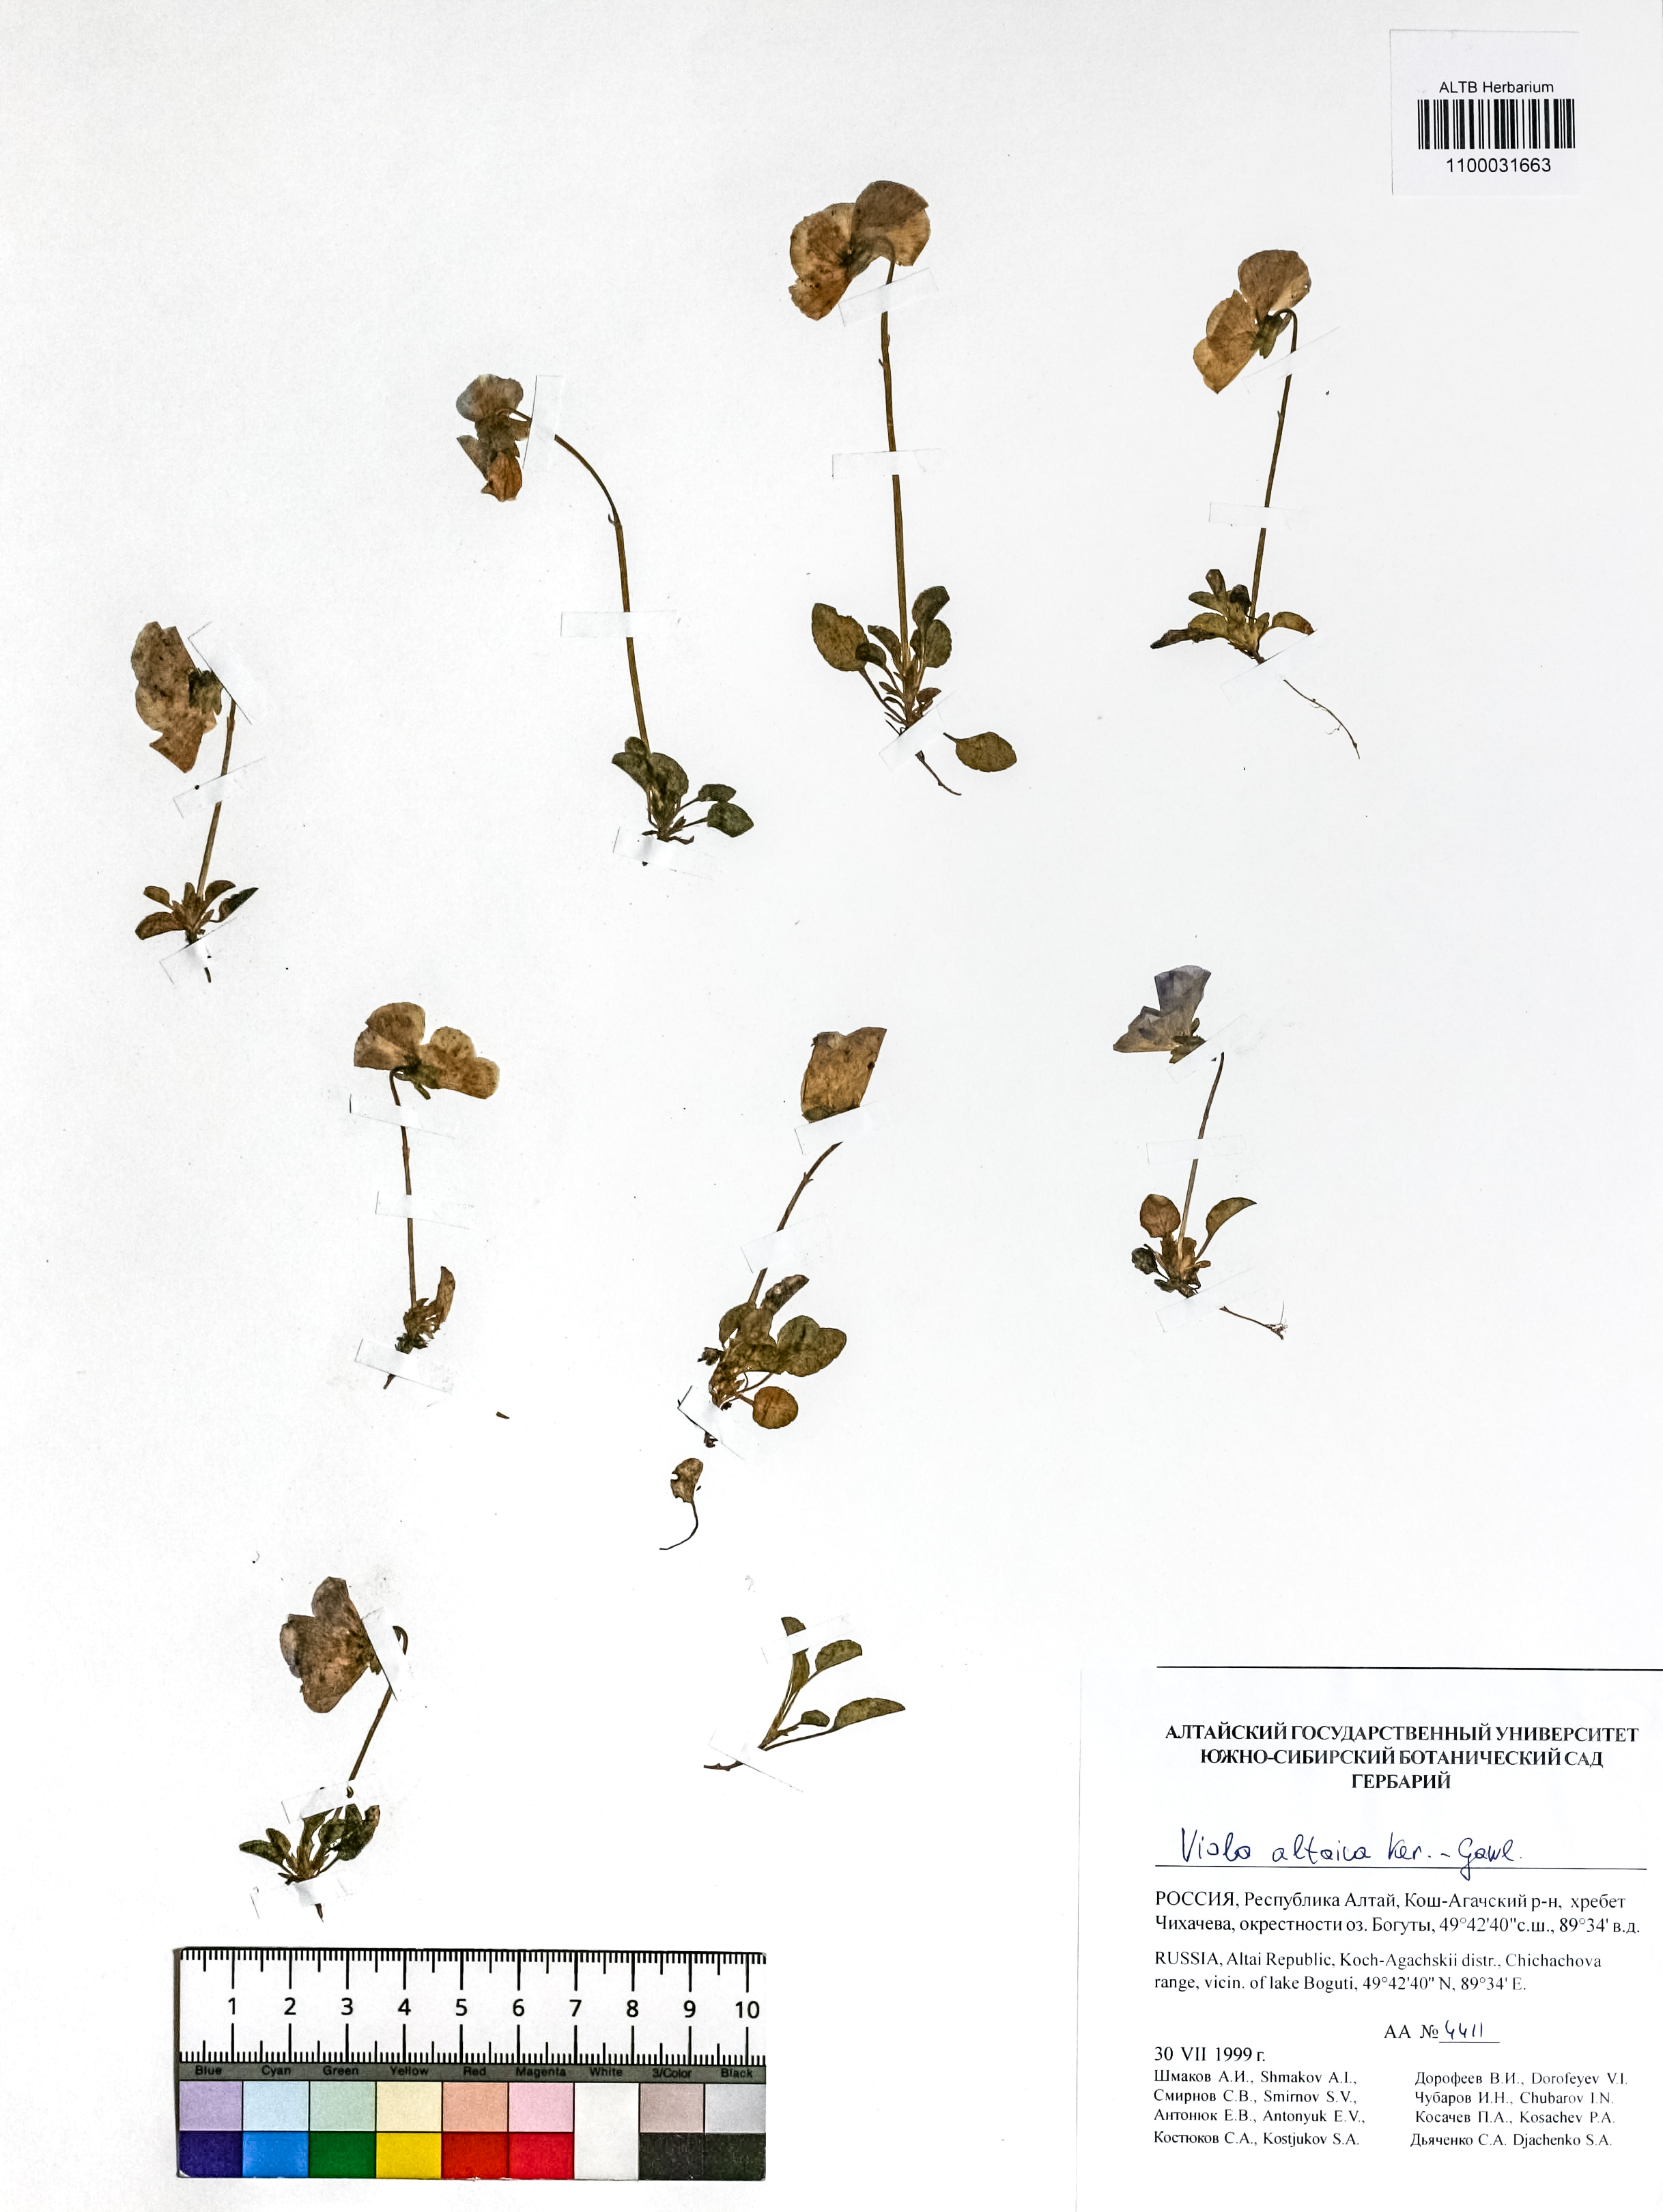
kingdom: Plantae
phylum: Tracheophyta
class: Magnoliopsida
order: Malpighiales
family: Violaceae
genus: Viola
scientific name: Viola altaica
